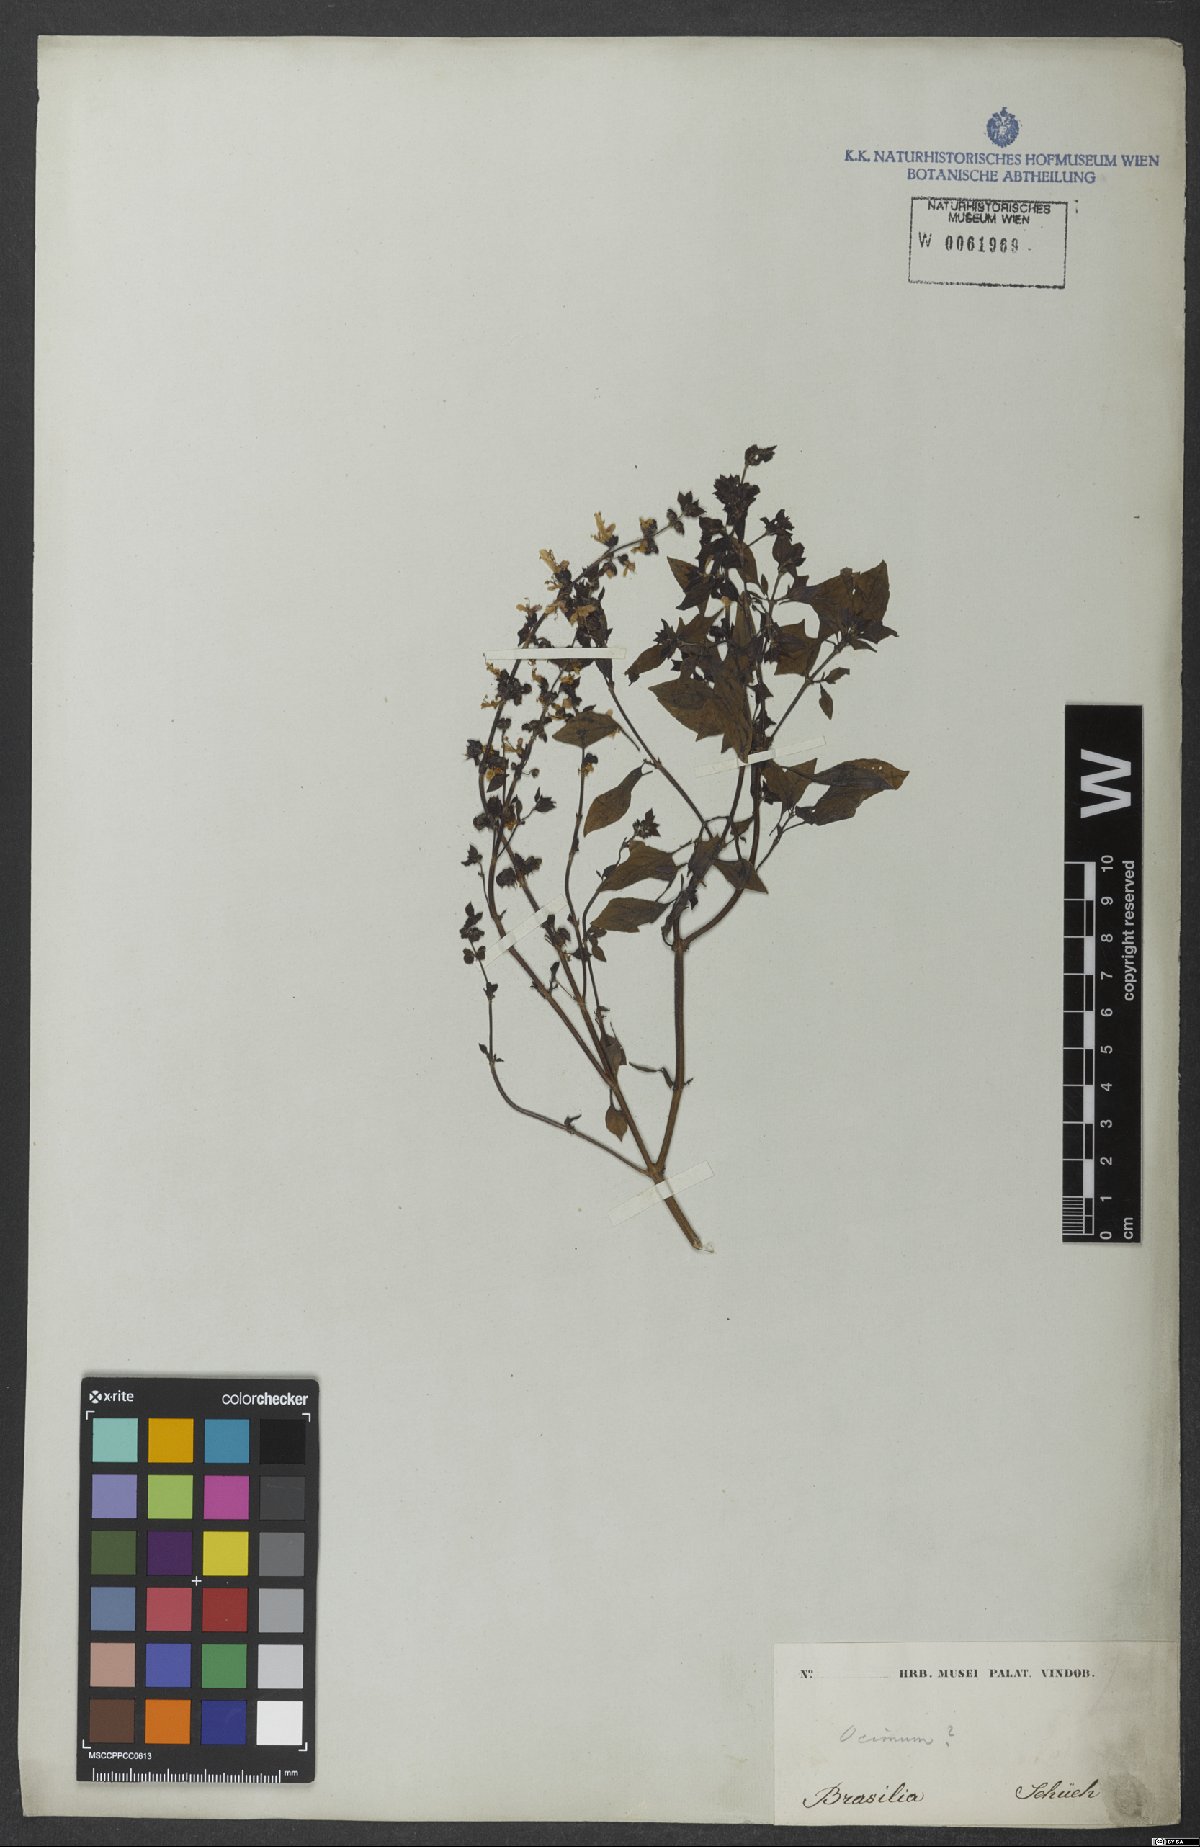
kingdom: Plantae
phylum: Tracheophyta
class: Magnoliopsida
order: Lamiales
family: Lamiaceae
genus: Ocimum
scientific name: Ocimum
